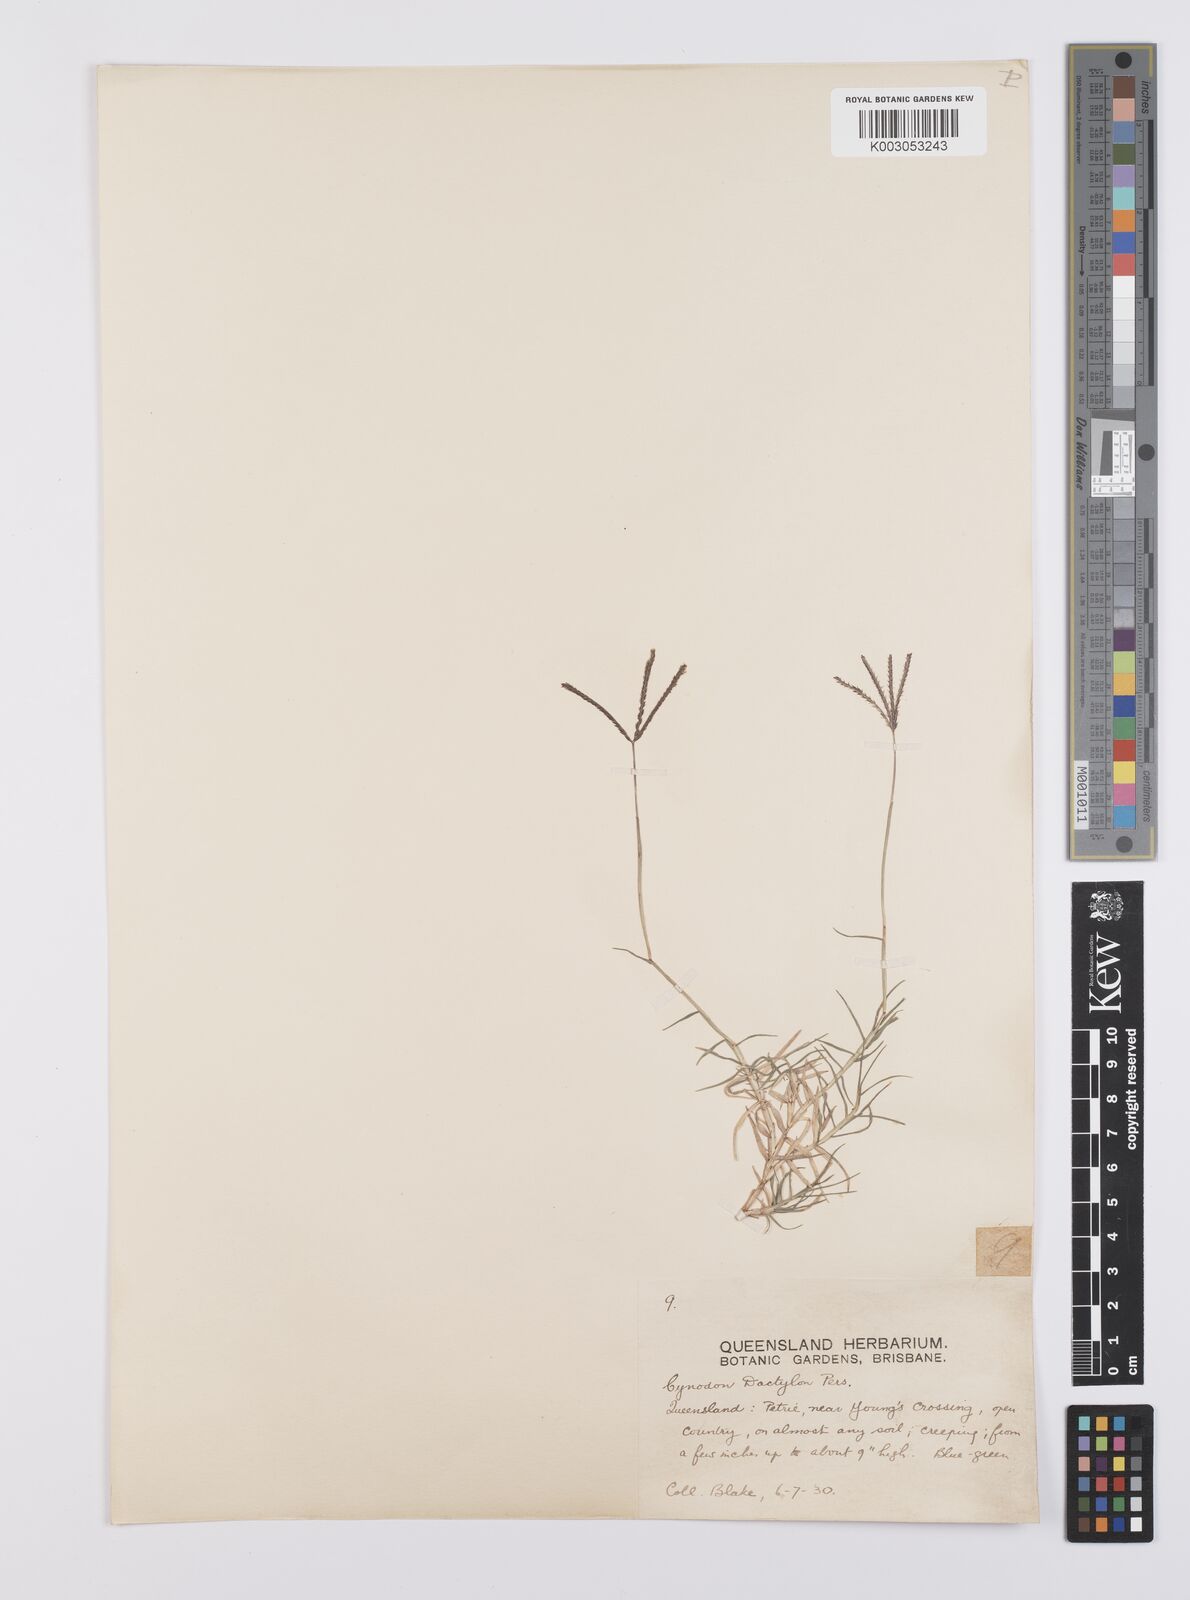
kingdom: Plantae
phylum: Tracheophyta
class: Liliopsida
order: Poales
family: Poaceae
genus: Cynodon
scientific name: Cynodon dactylon
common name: Bermuda grass
